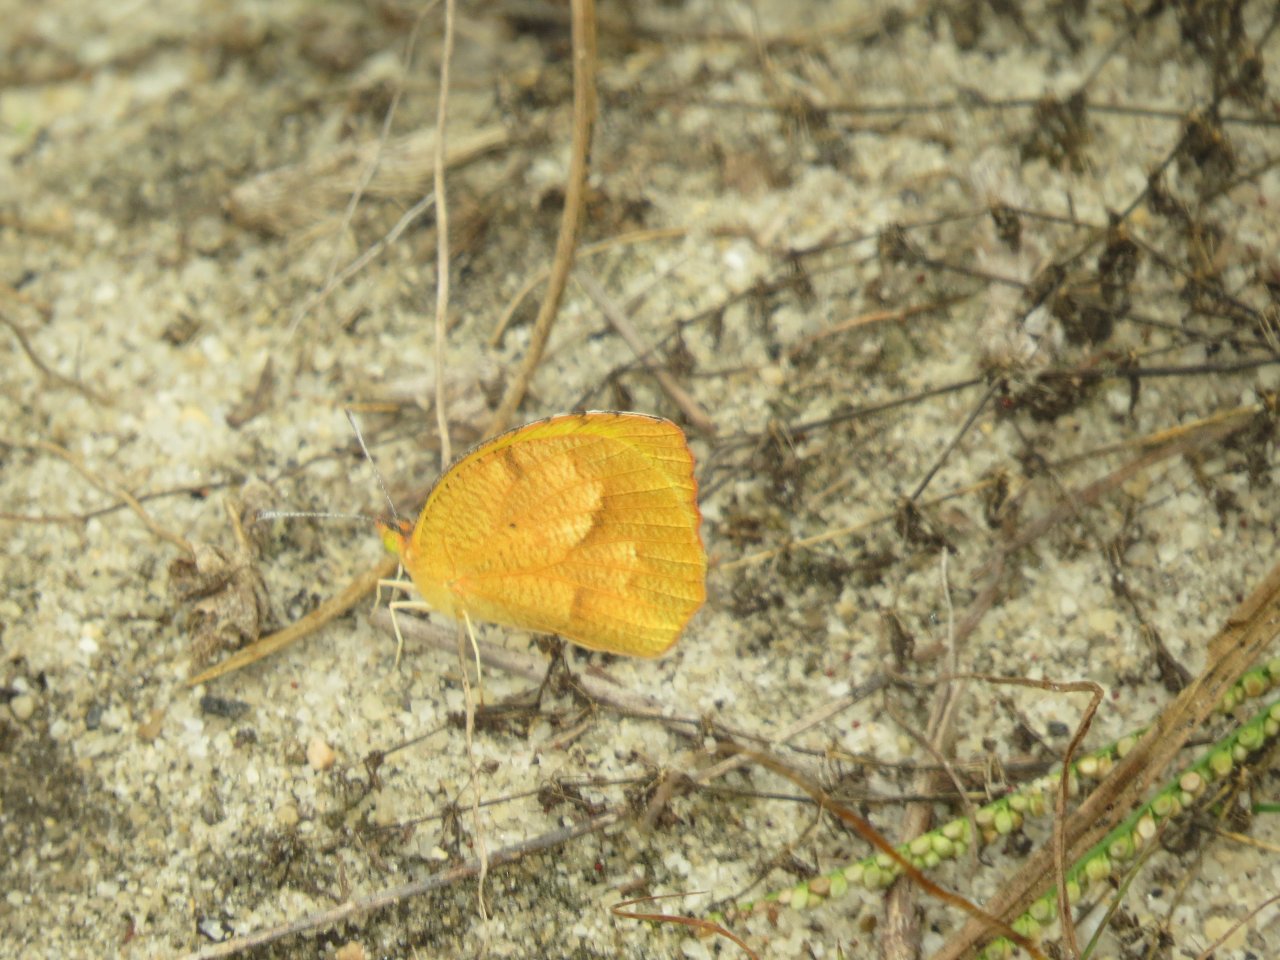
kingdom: Animalia
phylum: Arthropoda
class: Insecta
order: Lepidoptera
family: Pieridae
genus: Abaeis
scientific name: Abaeis nicippe
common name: Sleepy Orange
